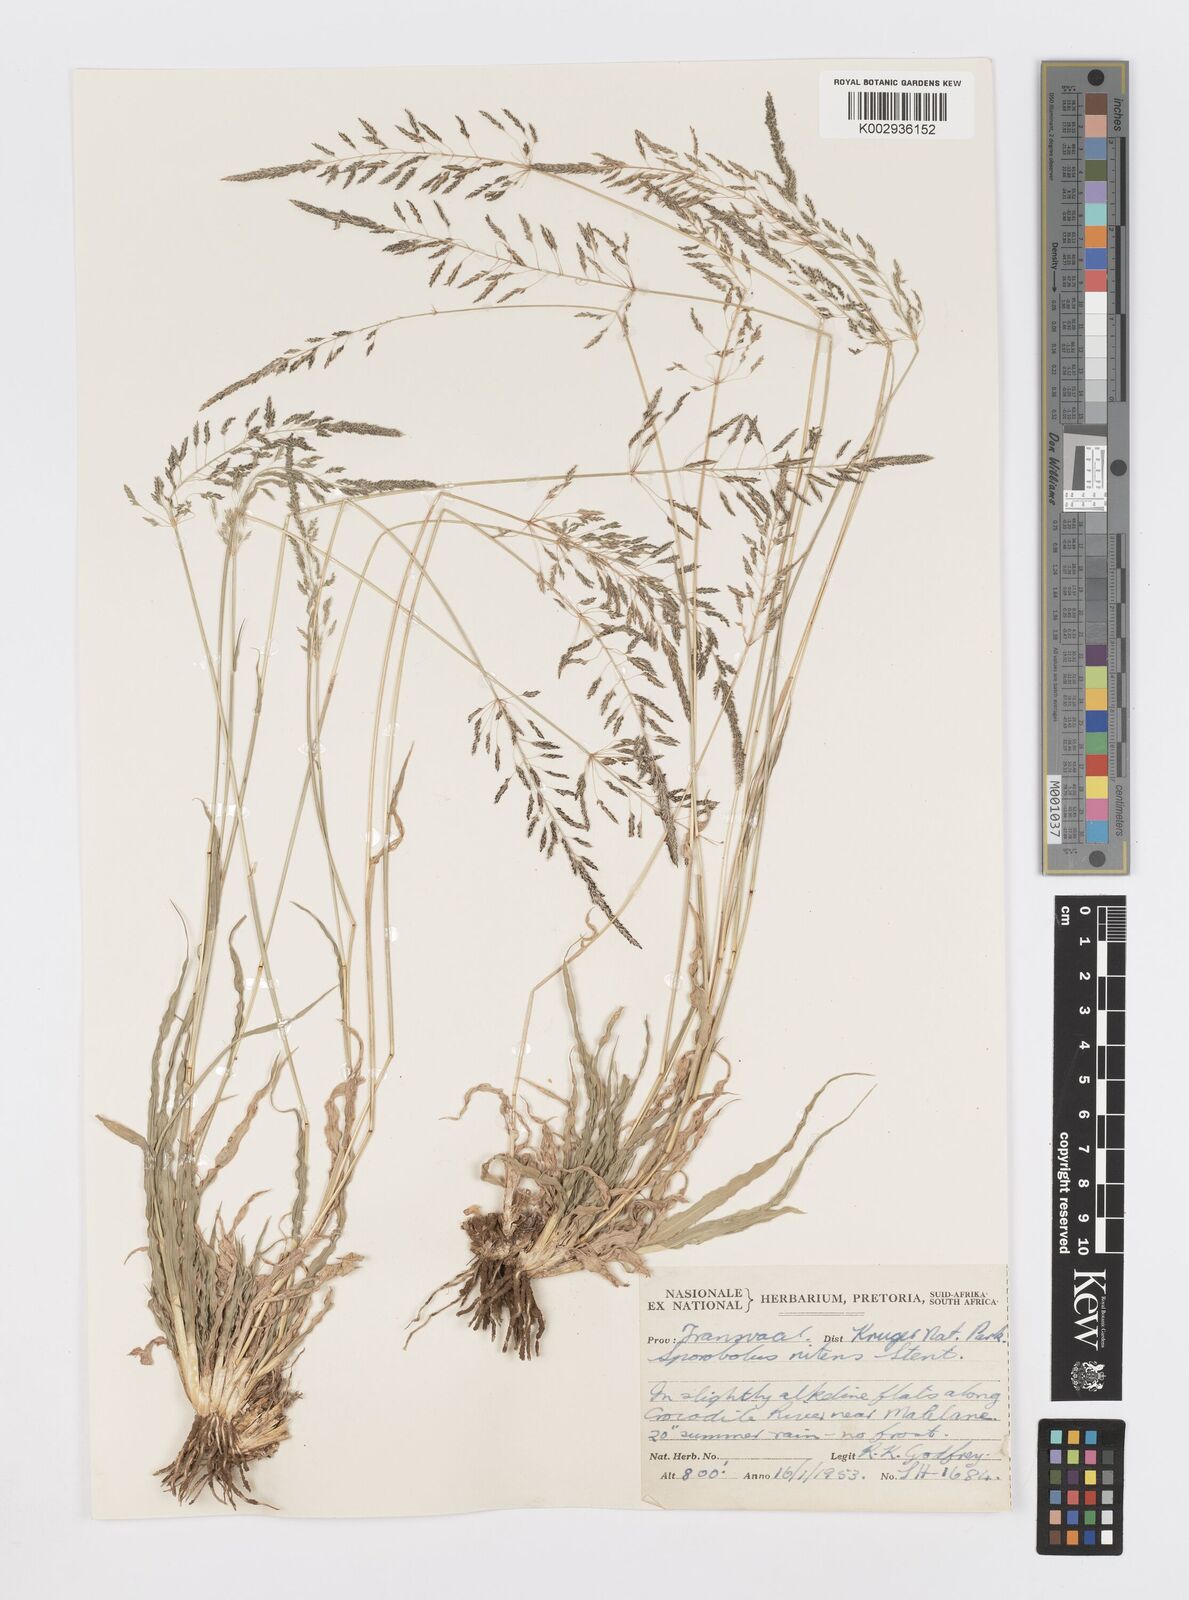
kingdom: Plantae
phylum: Tracheophyta
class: Liliopsida
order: Poales
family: Poaceae
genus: Sporobolus
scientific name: Sporobolus nitens
